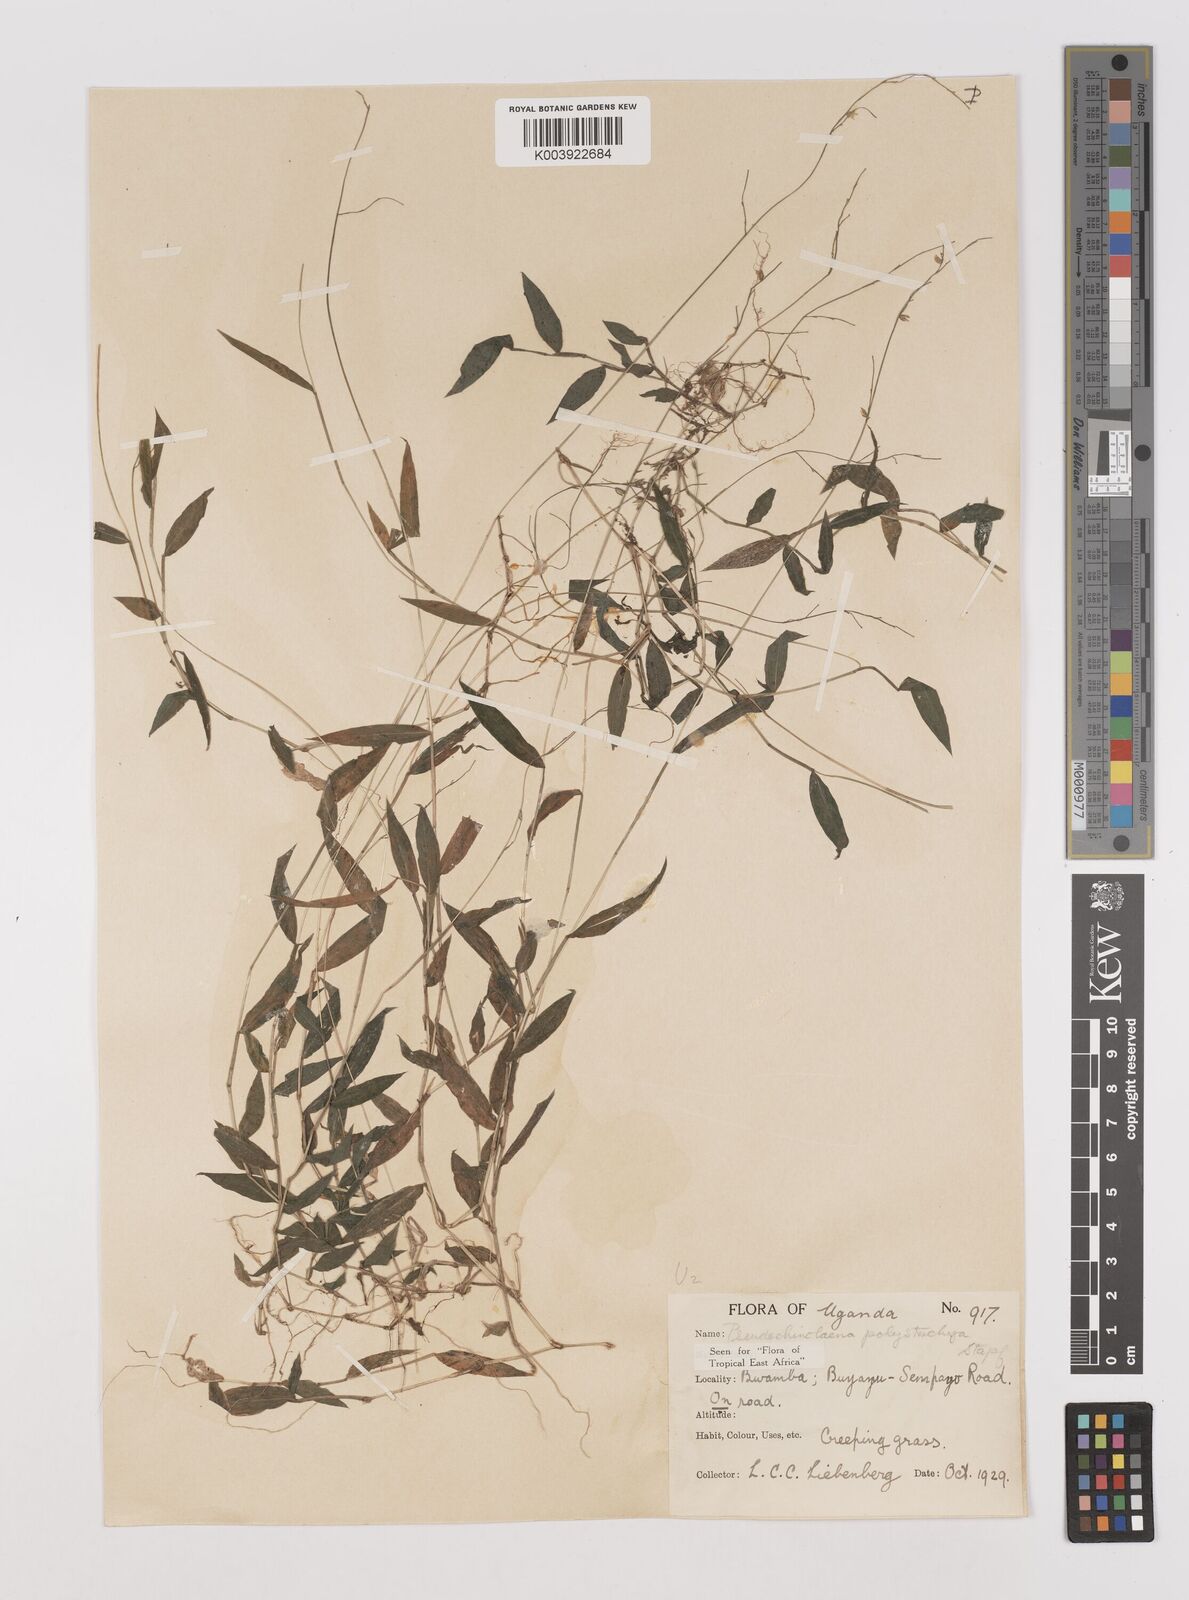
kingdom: Plantae
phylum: Tracheophyta
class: Liliopsida
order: Poales
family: Poaceae
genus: Pseudechinolaena
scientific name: Pseudechinolaena polystachya
